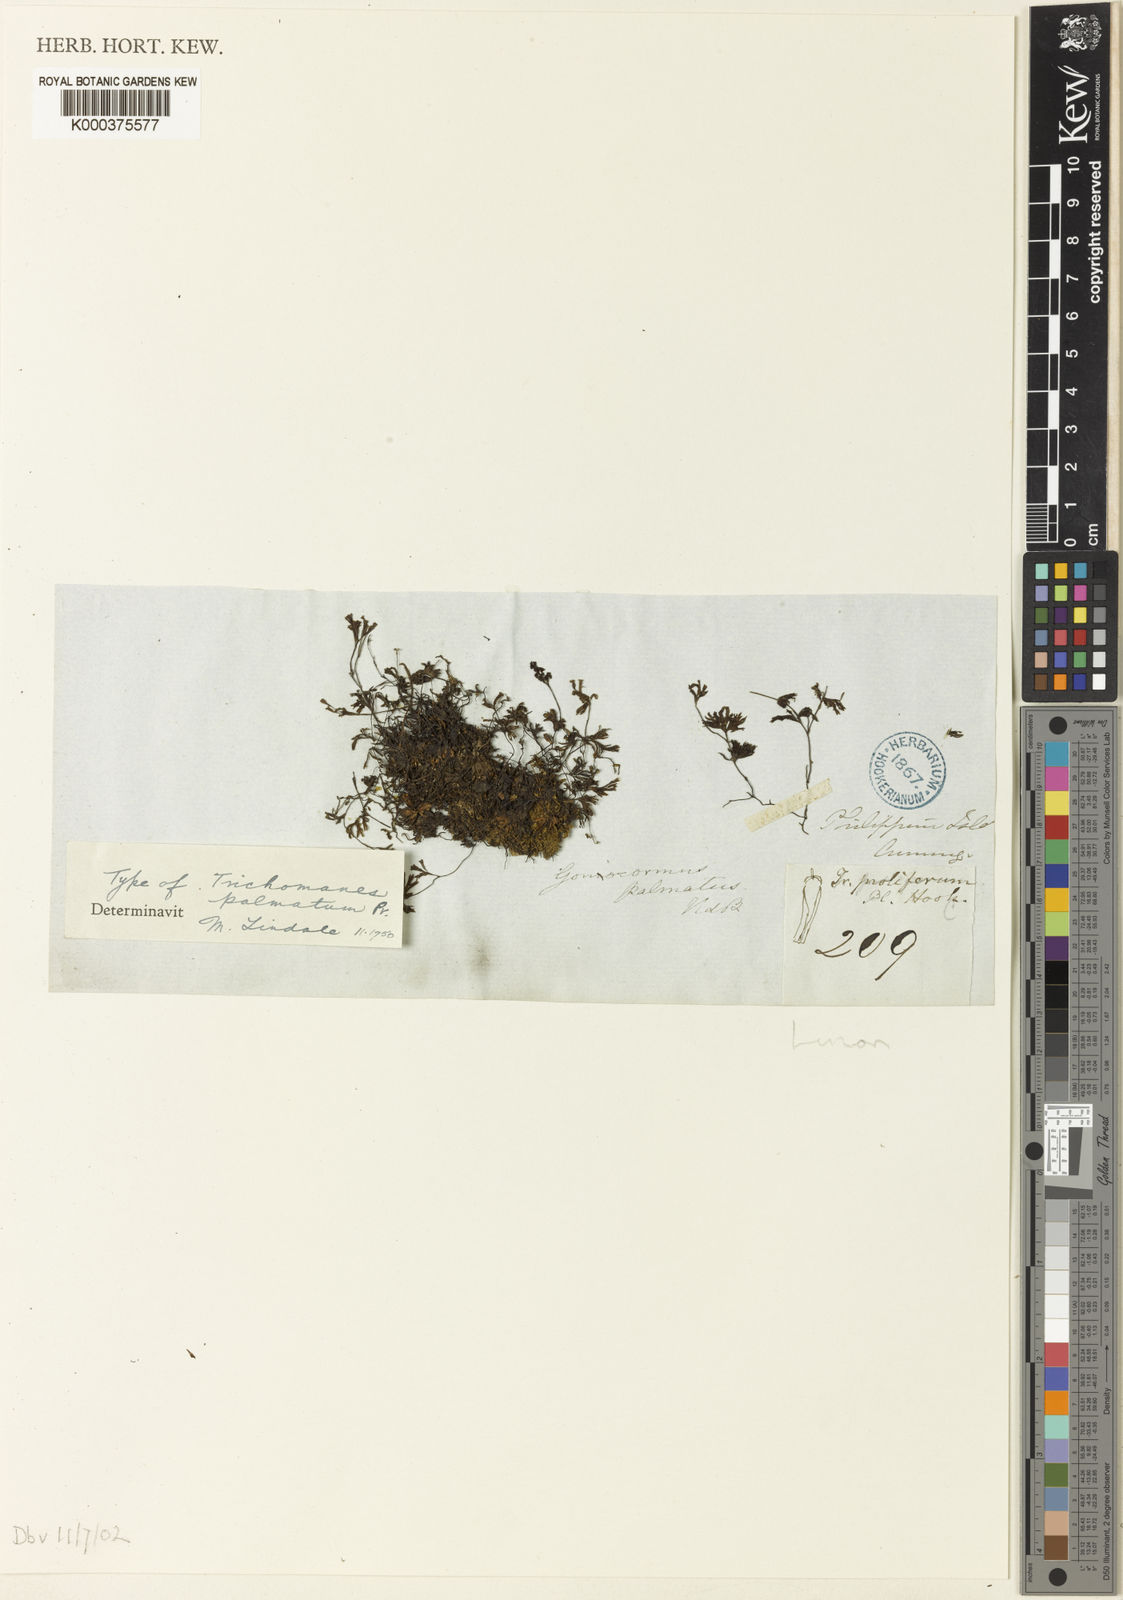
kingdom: Plantae
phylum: Tracheophyta
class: Polypodiopsida
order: Hymenophyllales
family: Hymenophyllaceae
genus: Crepidomanes
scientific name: Crepidomanes parvulum
